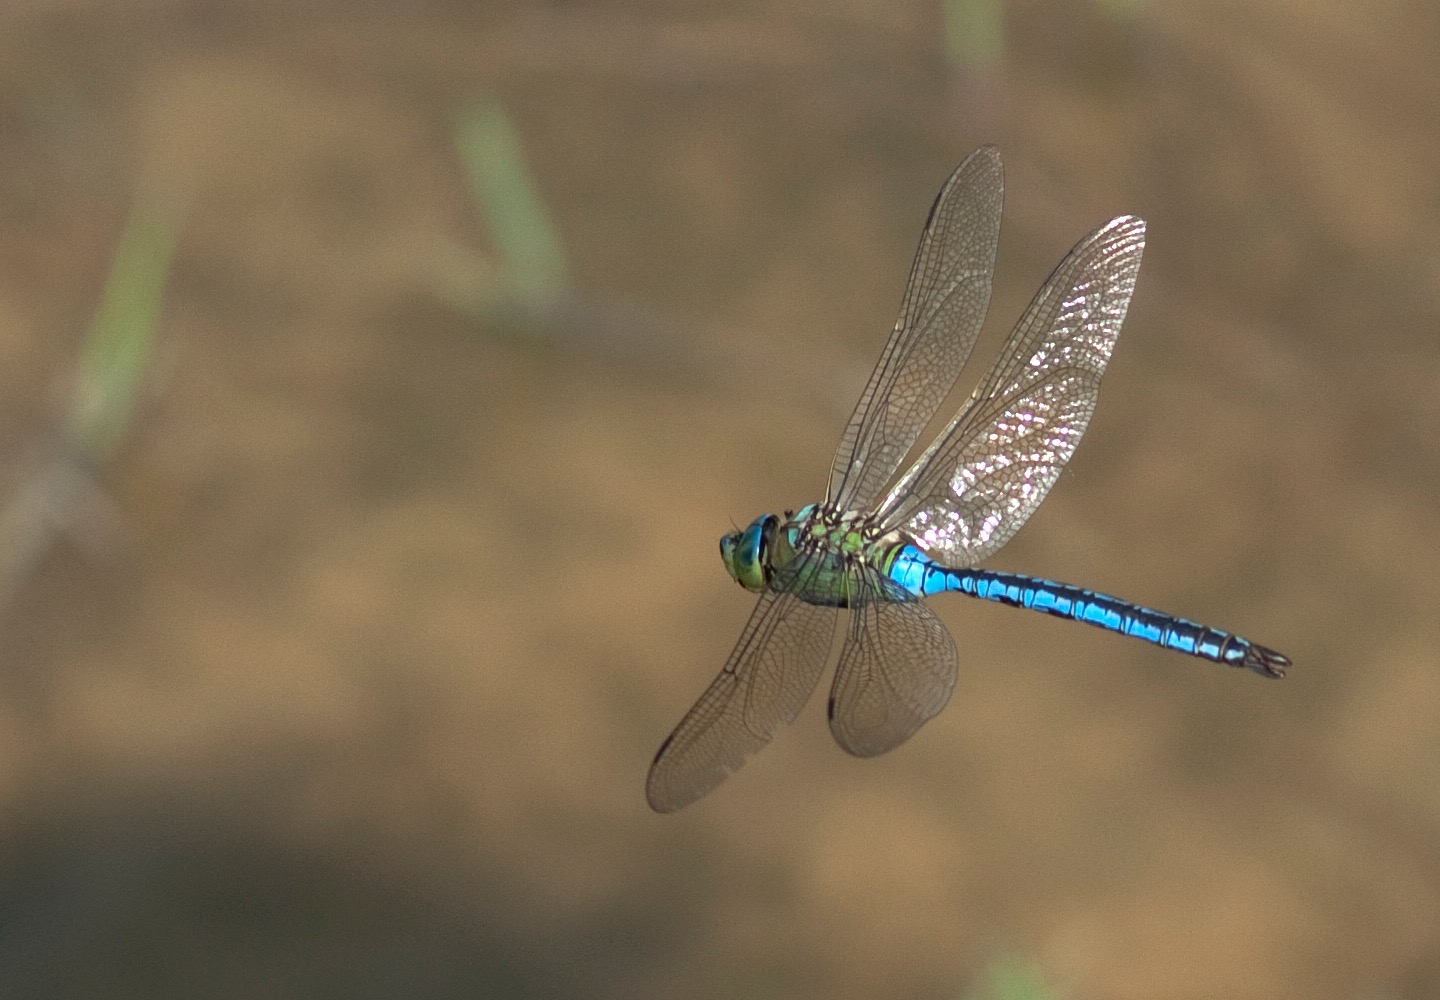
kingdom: Animalia
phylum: Arthropoda
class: Insecta
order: Odonata
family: Aeshnidae
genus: Anax
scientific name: Anax imperator
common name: Stor kejserguldsmed
